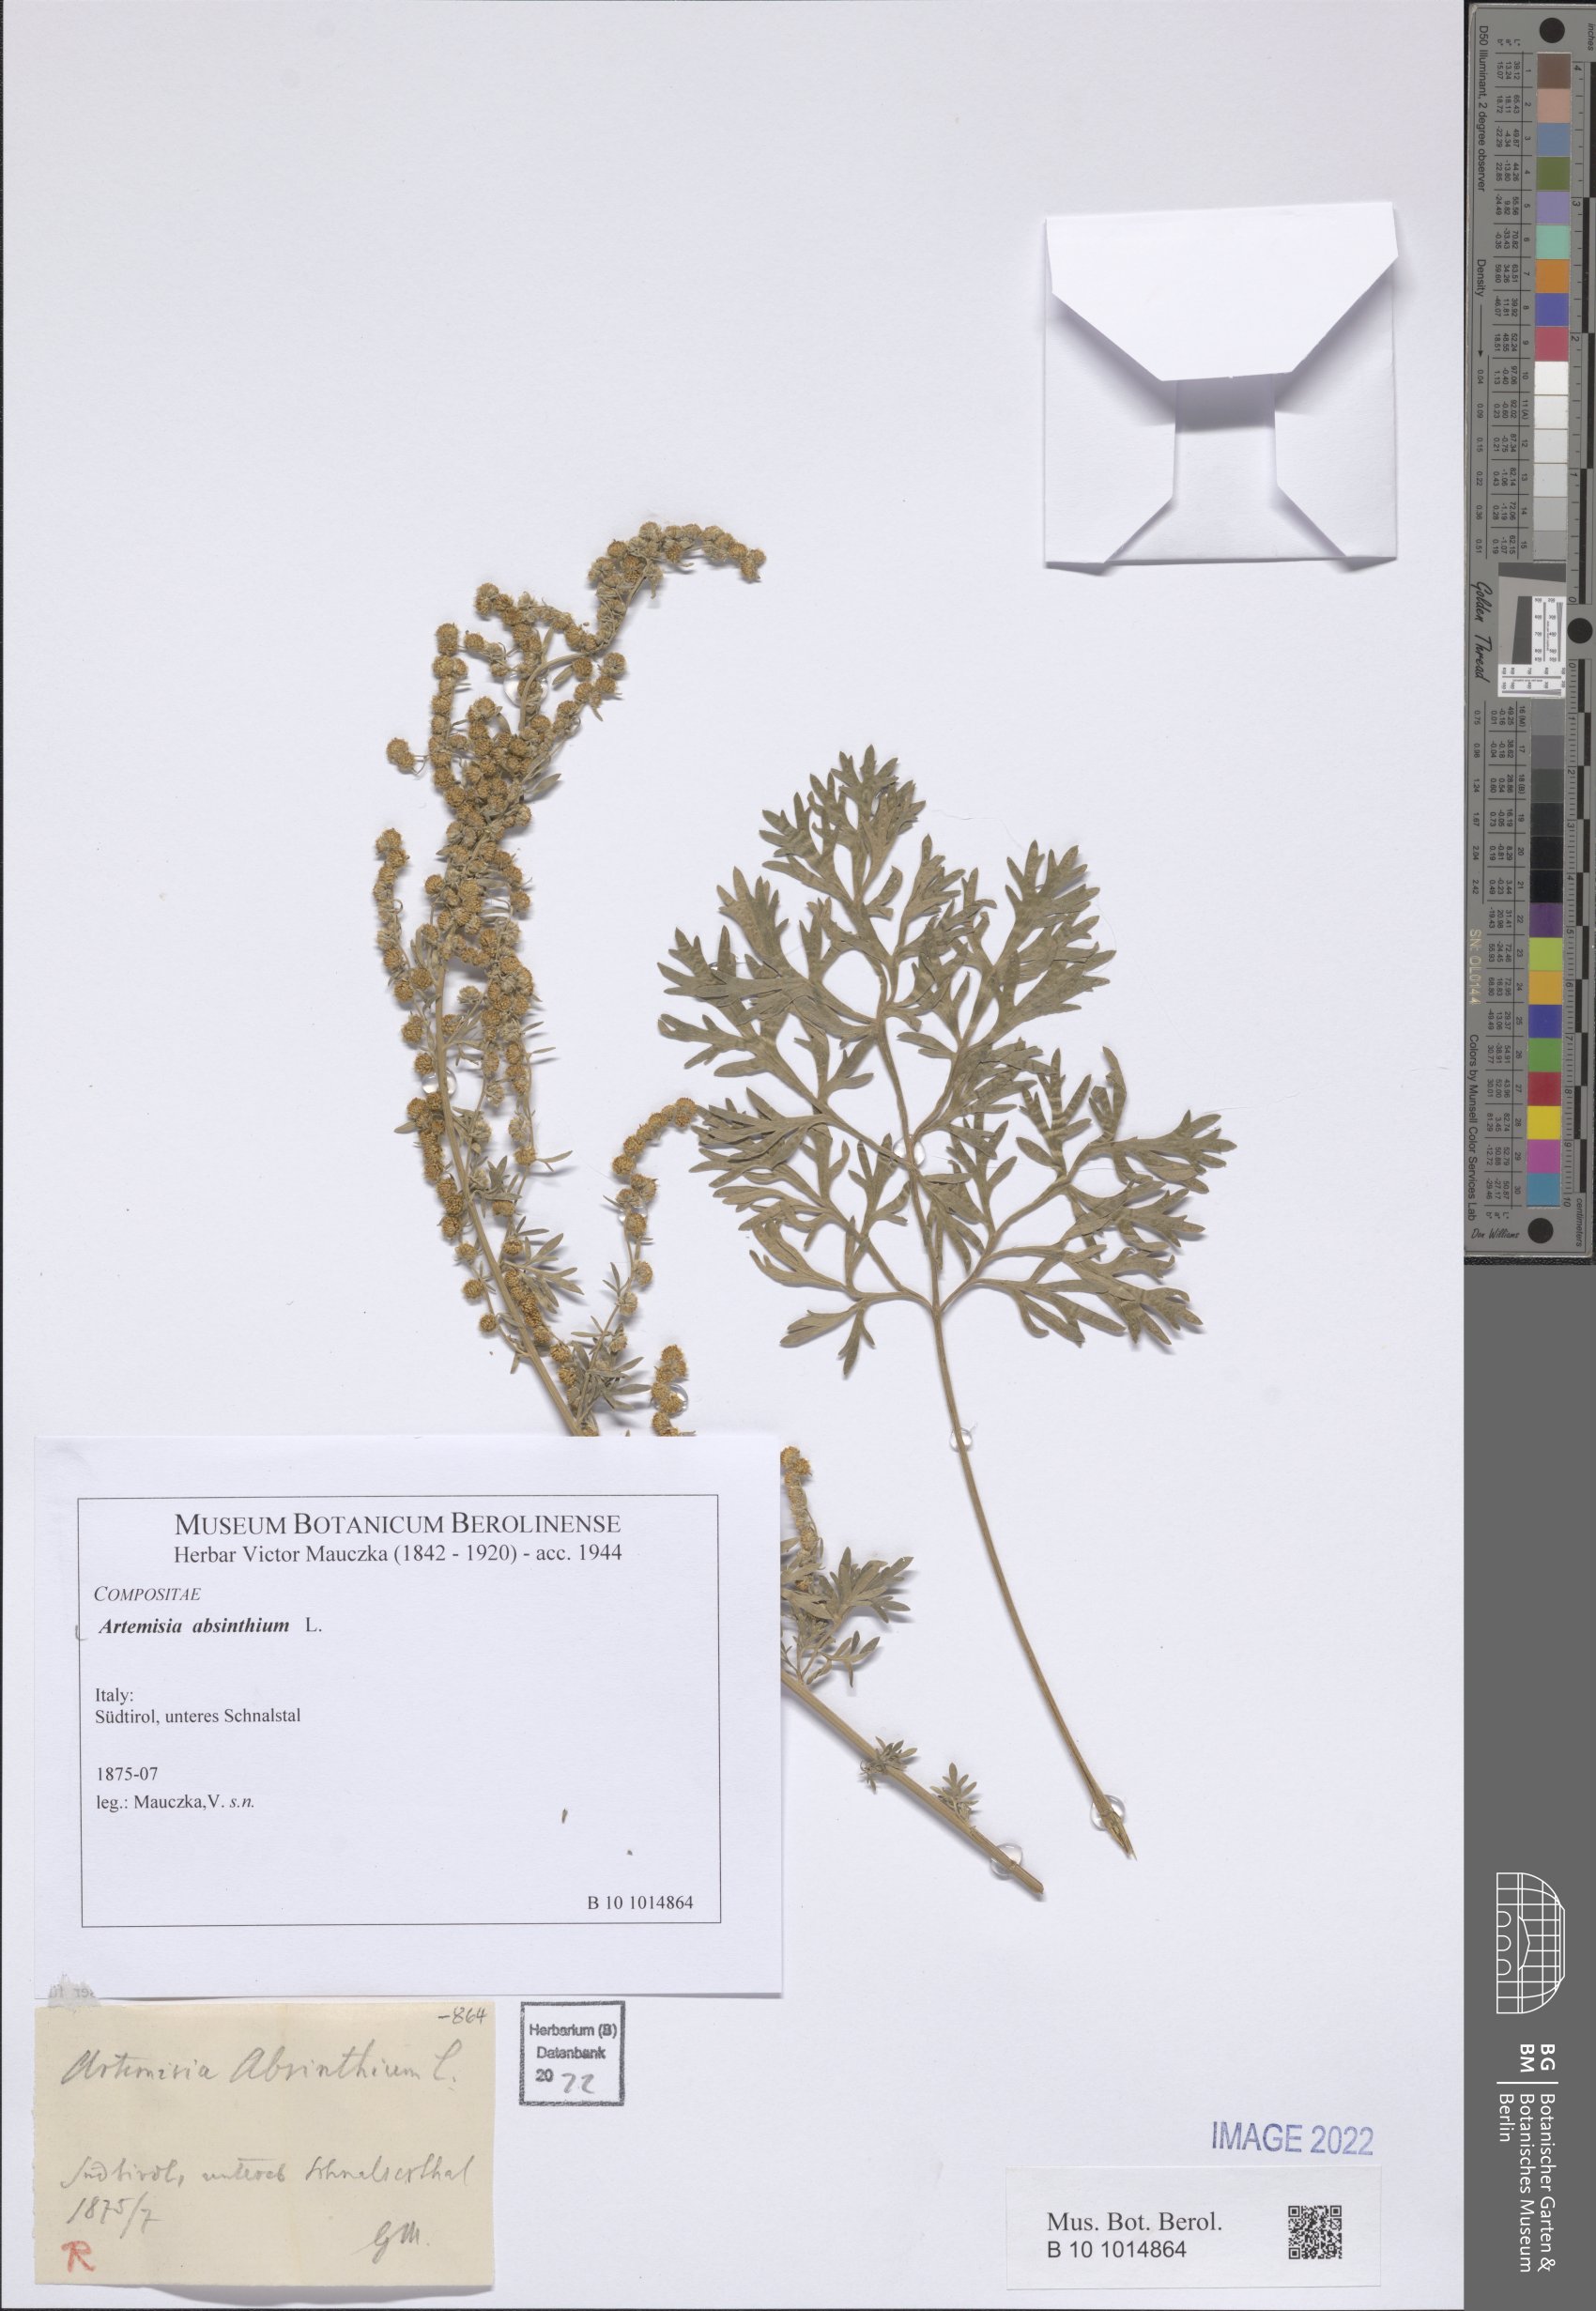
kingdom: Plantae
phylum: Tracheophyta
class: Magnoliopsida
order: Asterales
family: Asteraceae
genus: Artemisia
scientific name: Artemisia absinthium
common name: Wormwood
